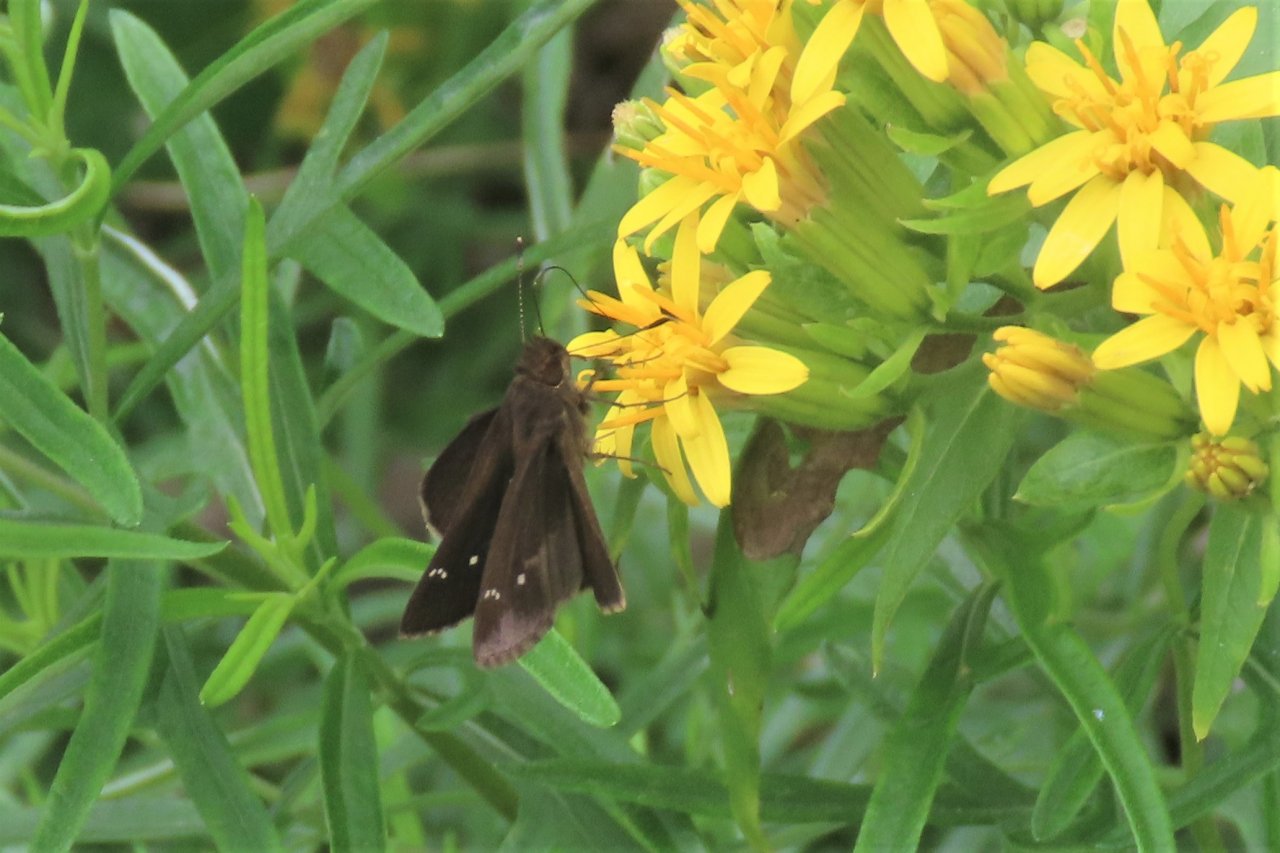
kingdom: Animalia
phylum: Arthropoda
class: Insecta
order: Lepidoptera
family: Hesperiidae
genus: Lerema
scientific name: Lerema accius
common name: Clouded Skipper
